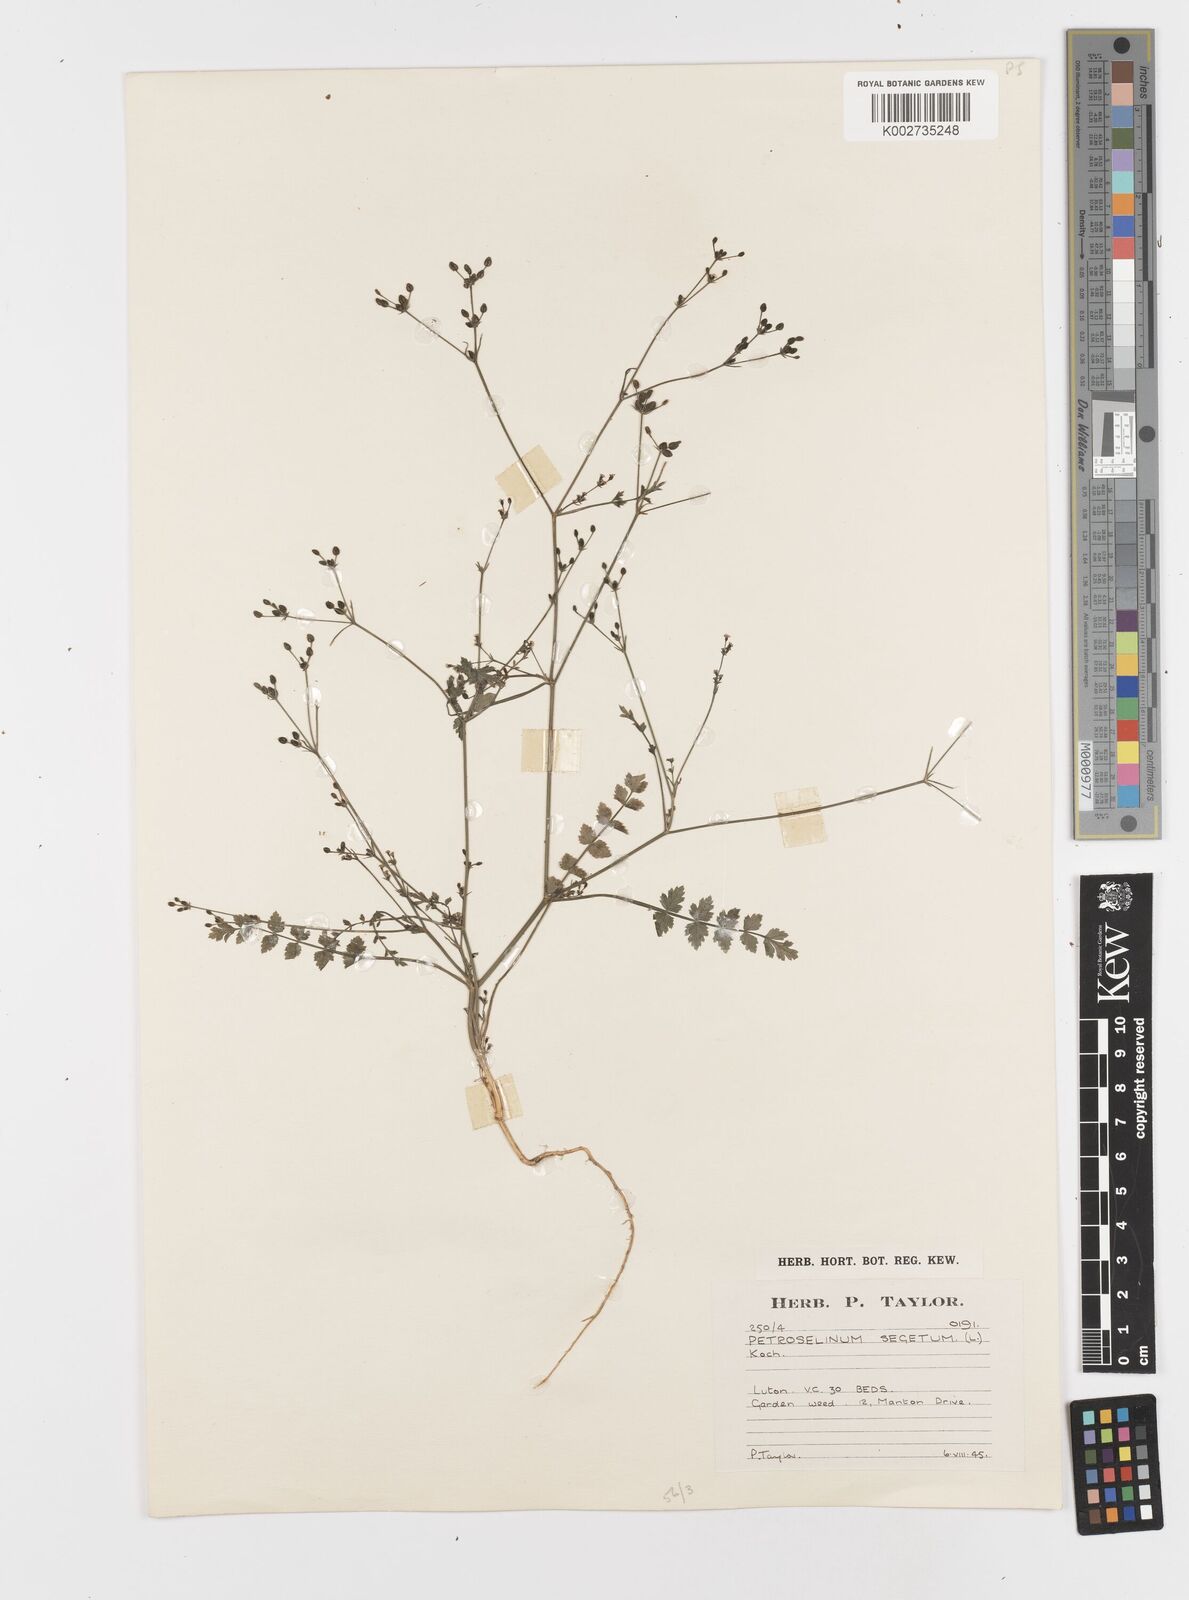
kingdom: Plantae
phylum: Tracheophyta
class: Magnoliopsida
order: Apiales
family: Apiaceae
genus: Petroselinum
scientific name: Petroselinum
